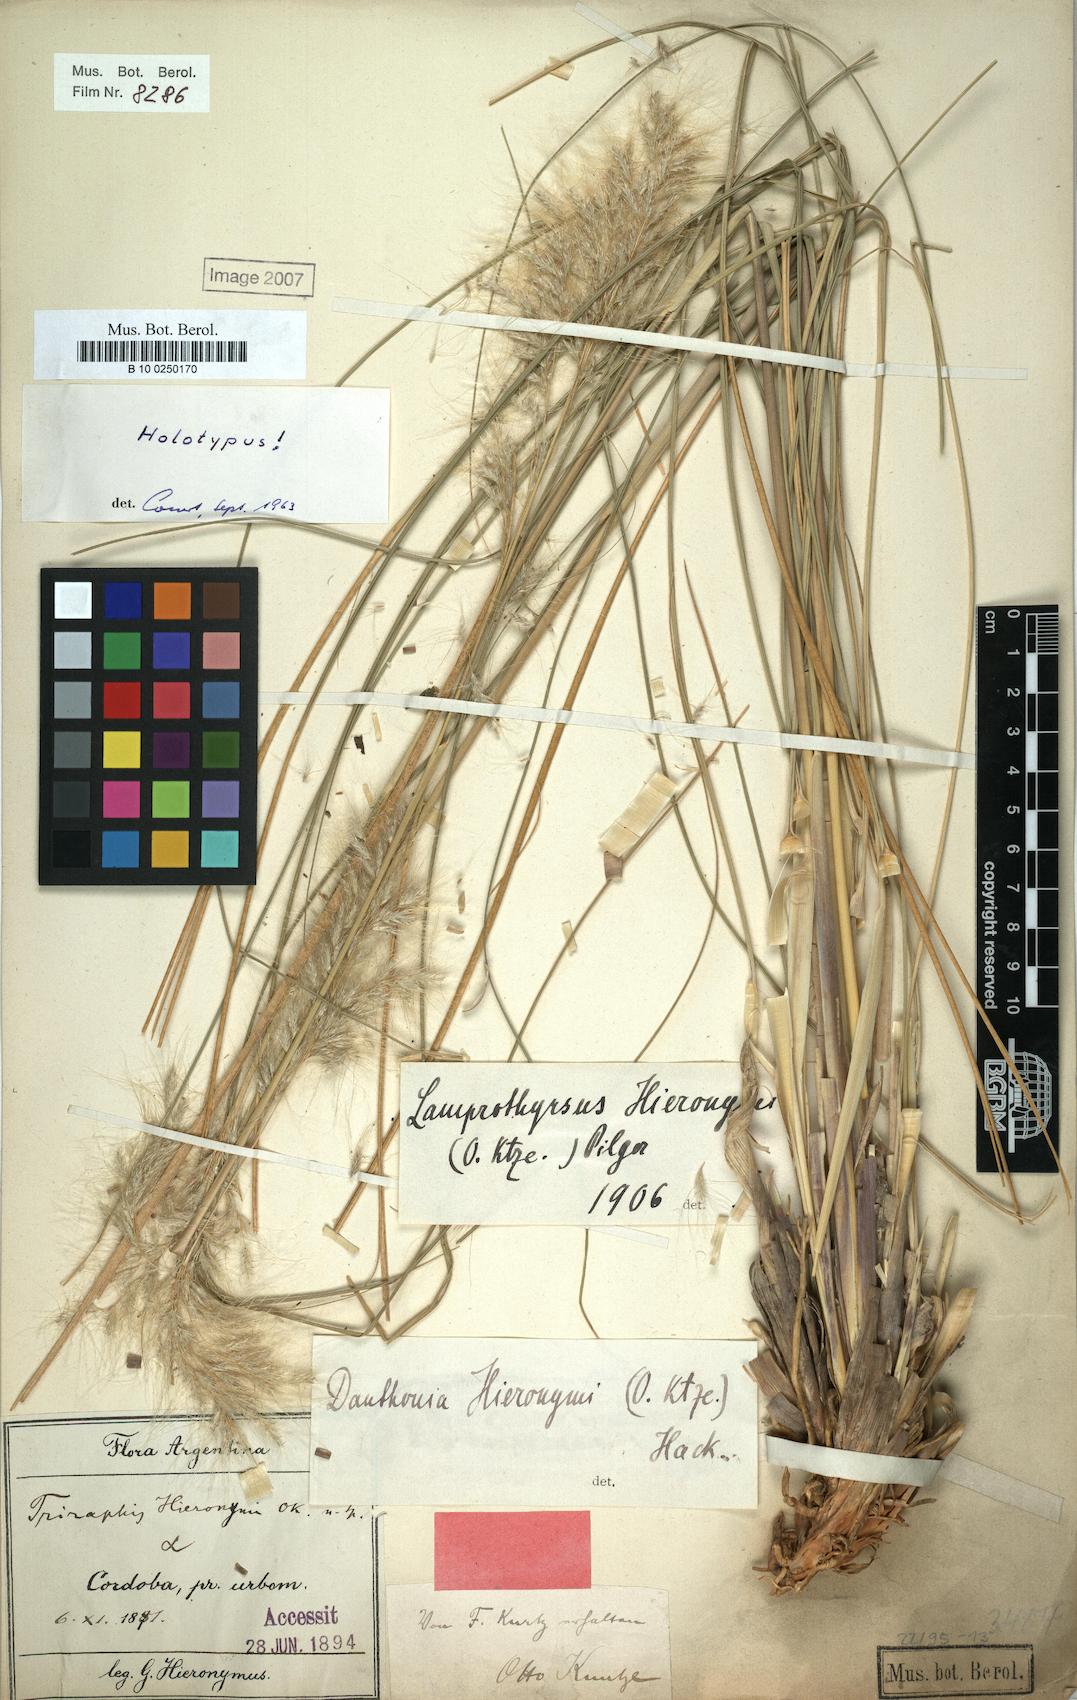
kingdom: Plantae
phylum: Tracheophyta
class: Liliopsida
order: Poales
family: Poaceae
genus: Cortaderia
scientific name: Cortaderia hieronymi
